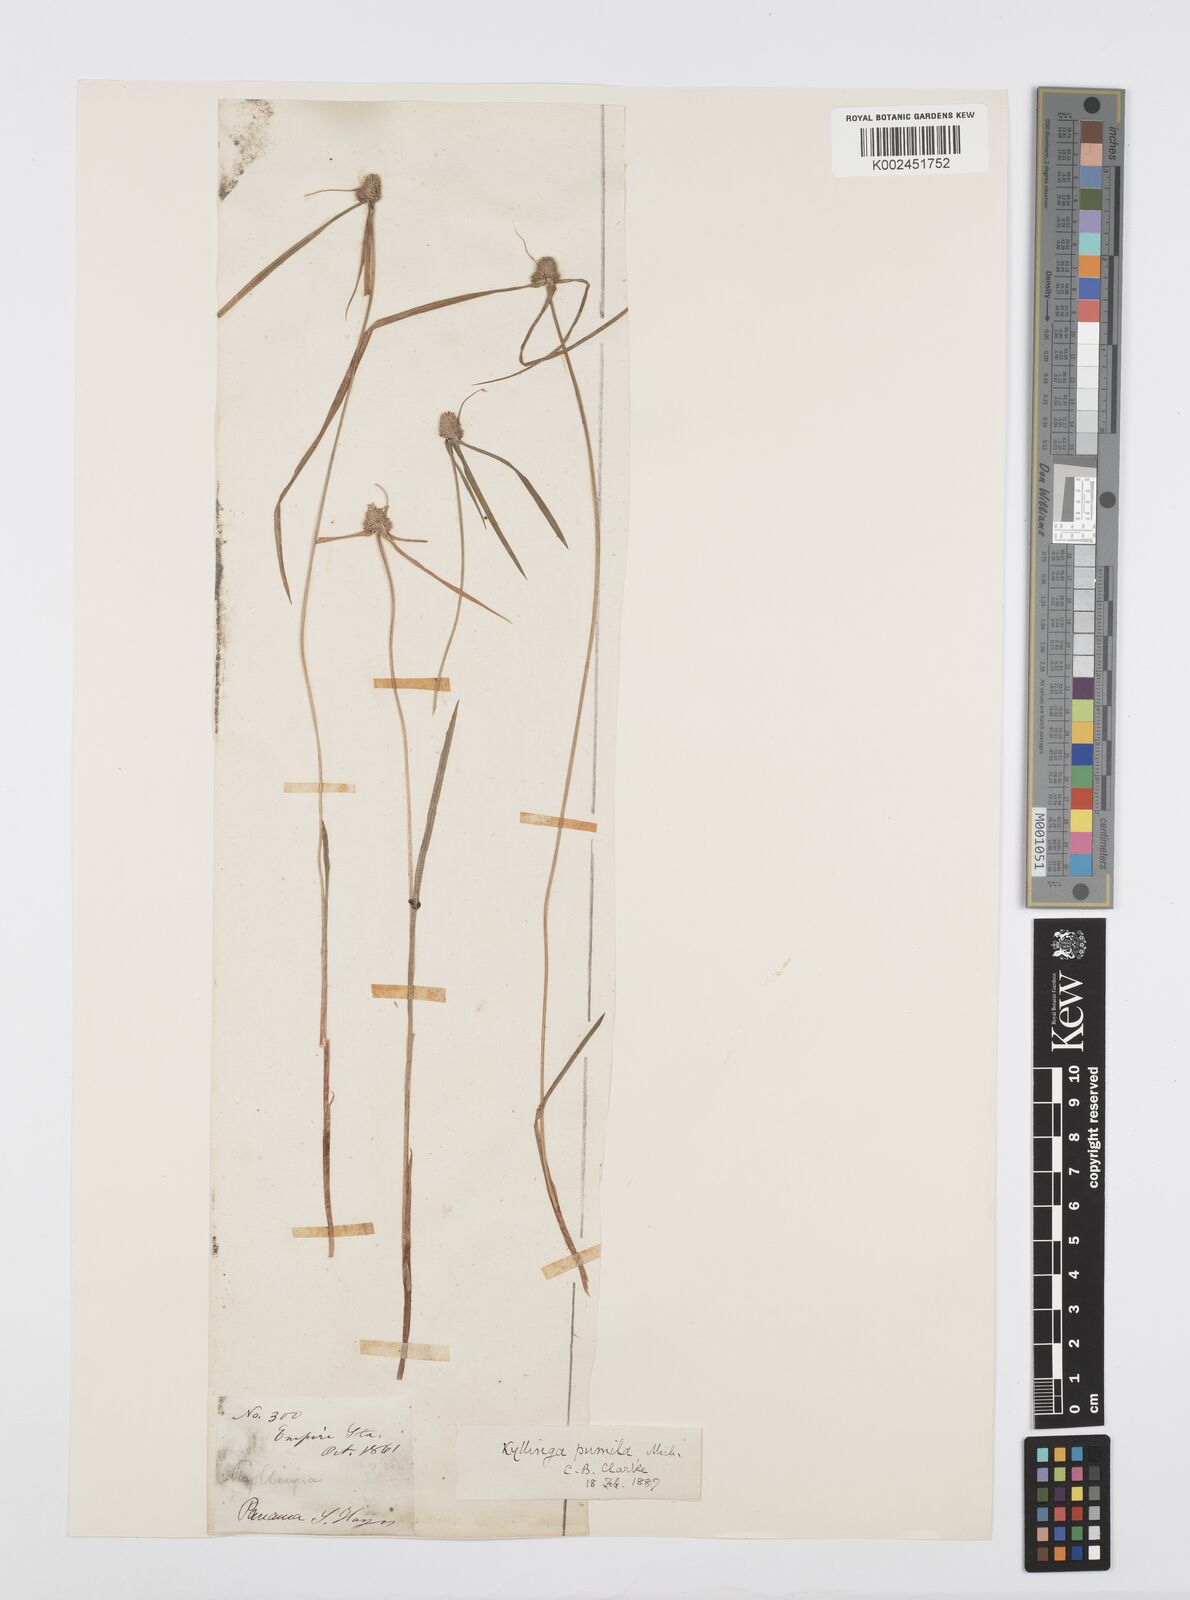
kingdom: Plantae
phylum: Tracheophyta
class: Liliopsida
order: Poales
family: Cyperaceae
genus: Cyperus
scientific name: Cyperus
